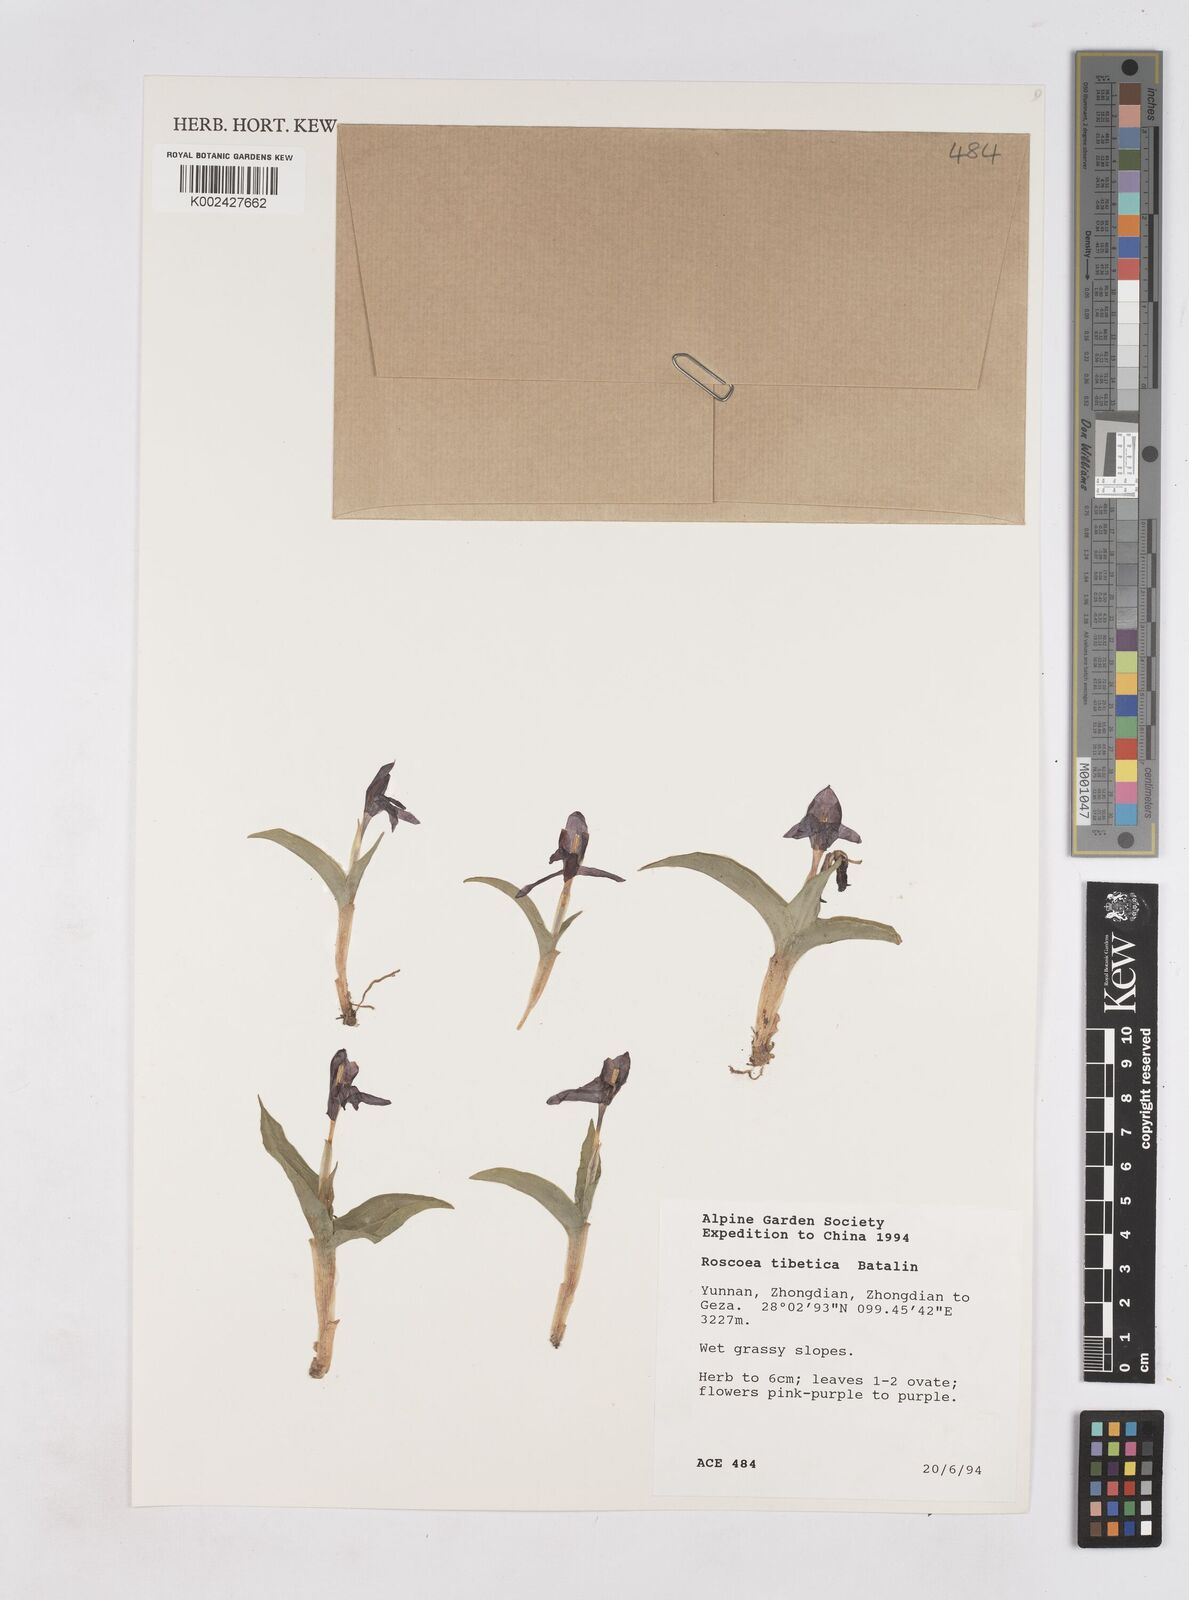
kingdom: Plantae
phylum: Tracheophyta
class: Liliopsida
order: Zingiberales
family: Zingiberaceae
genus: Roscoea
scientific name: Roscoea tibetica
